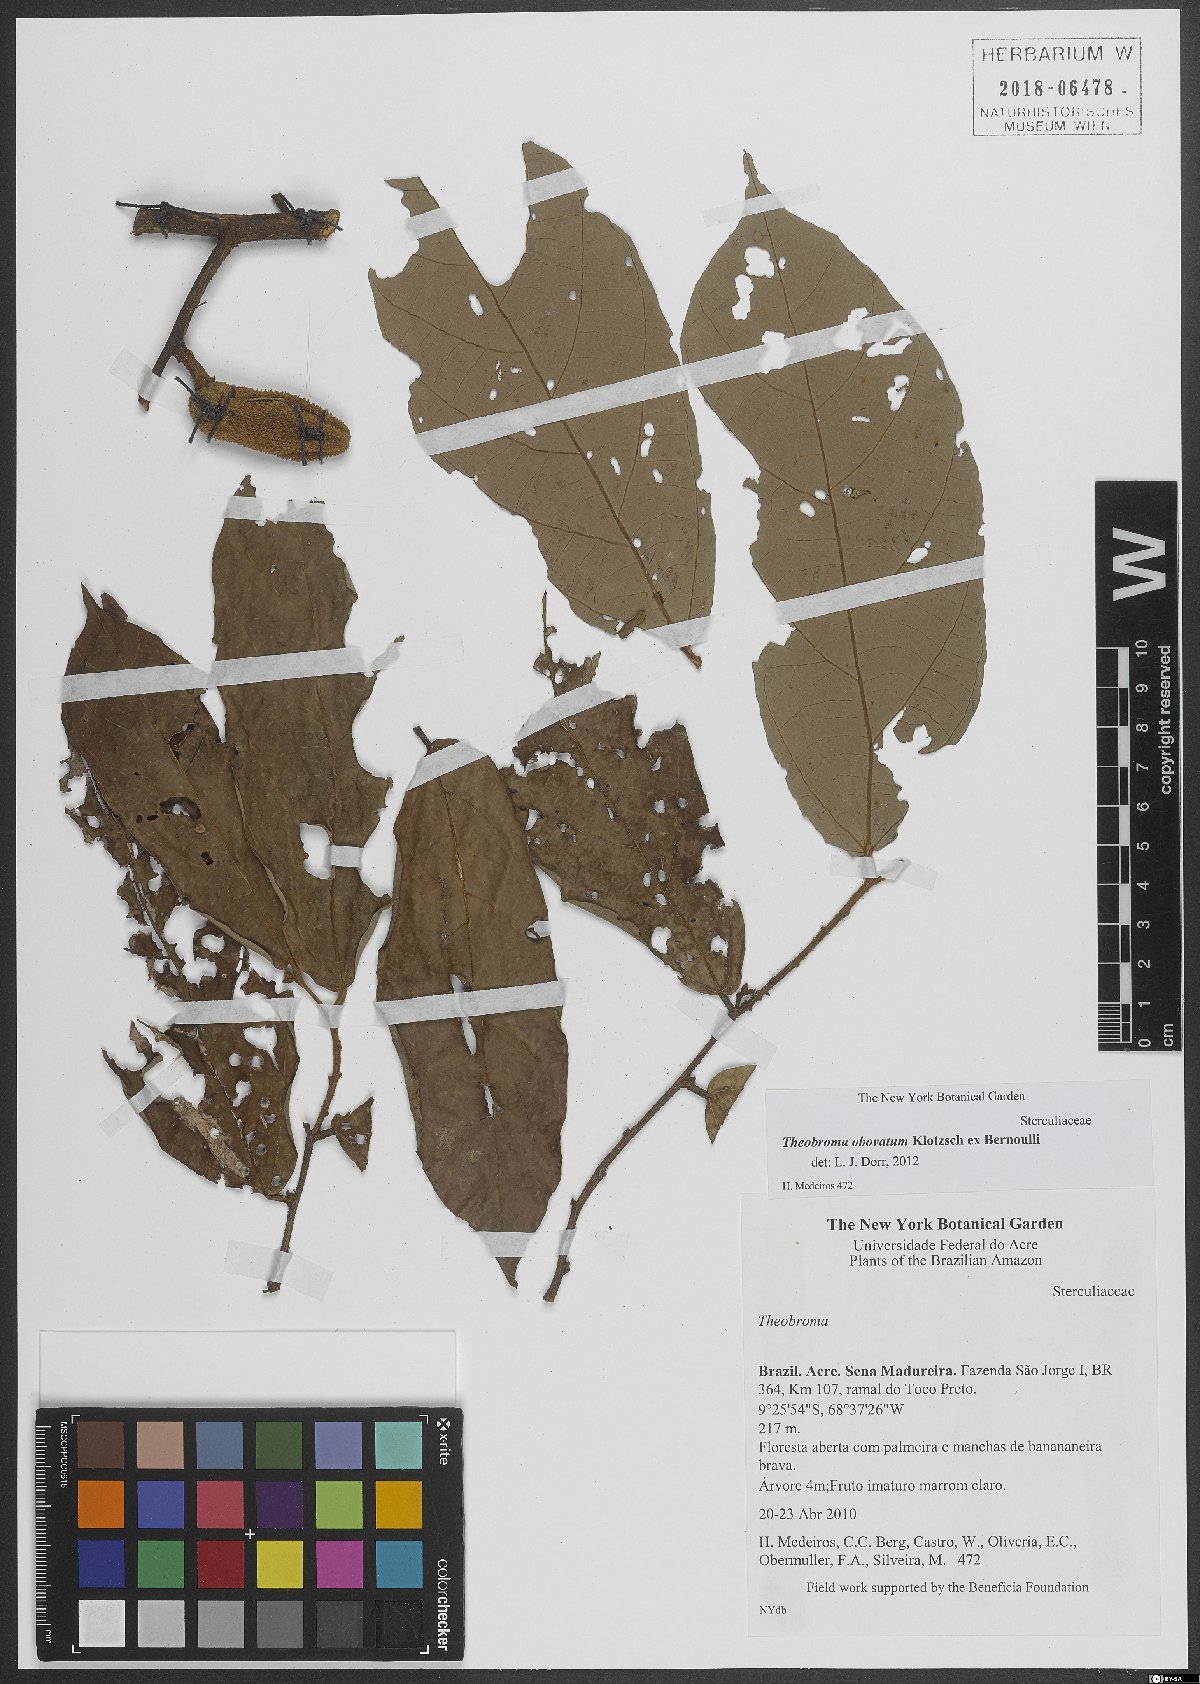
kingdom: Plantae
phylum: Tracheophyta
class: Magnoliopsida
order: Malvales
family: Malvaceae
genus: Theobroma
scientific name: Theobroma obovatum
